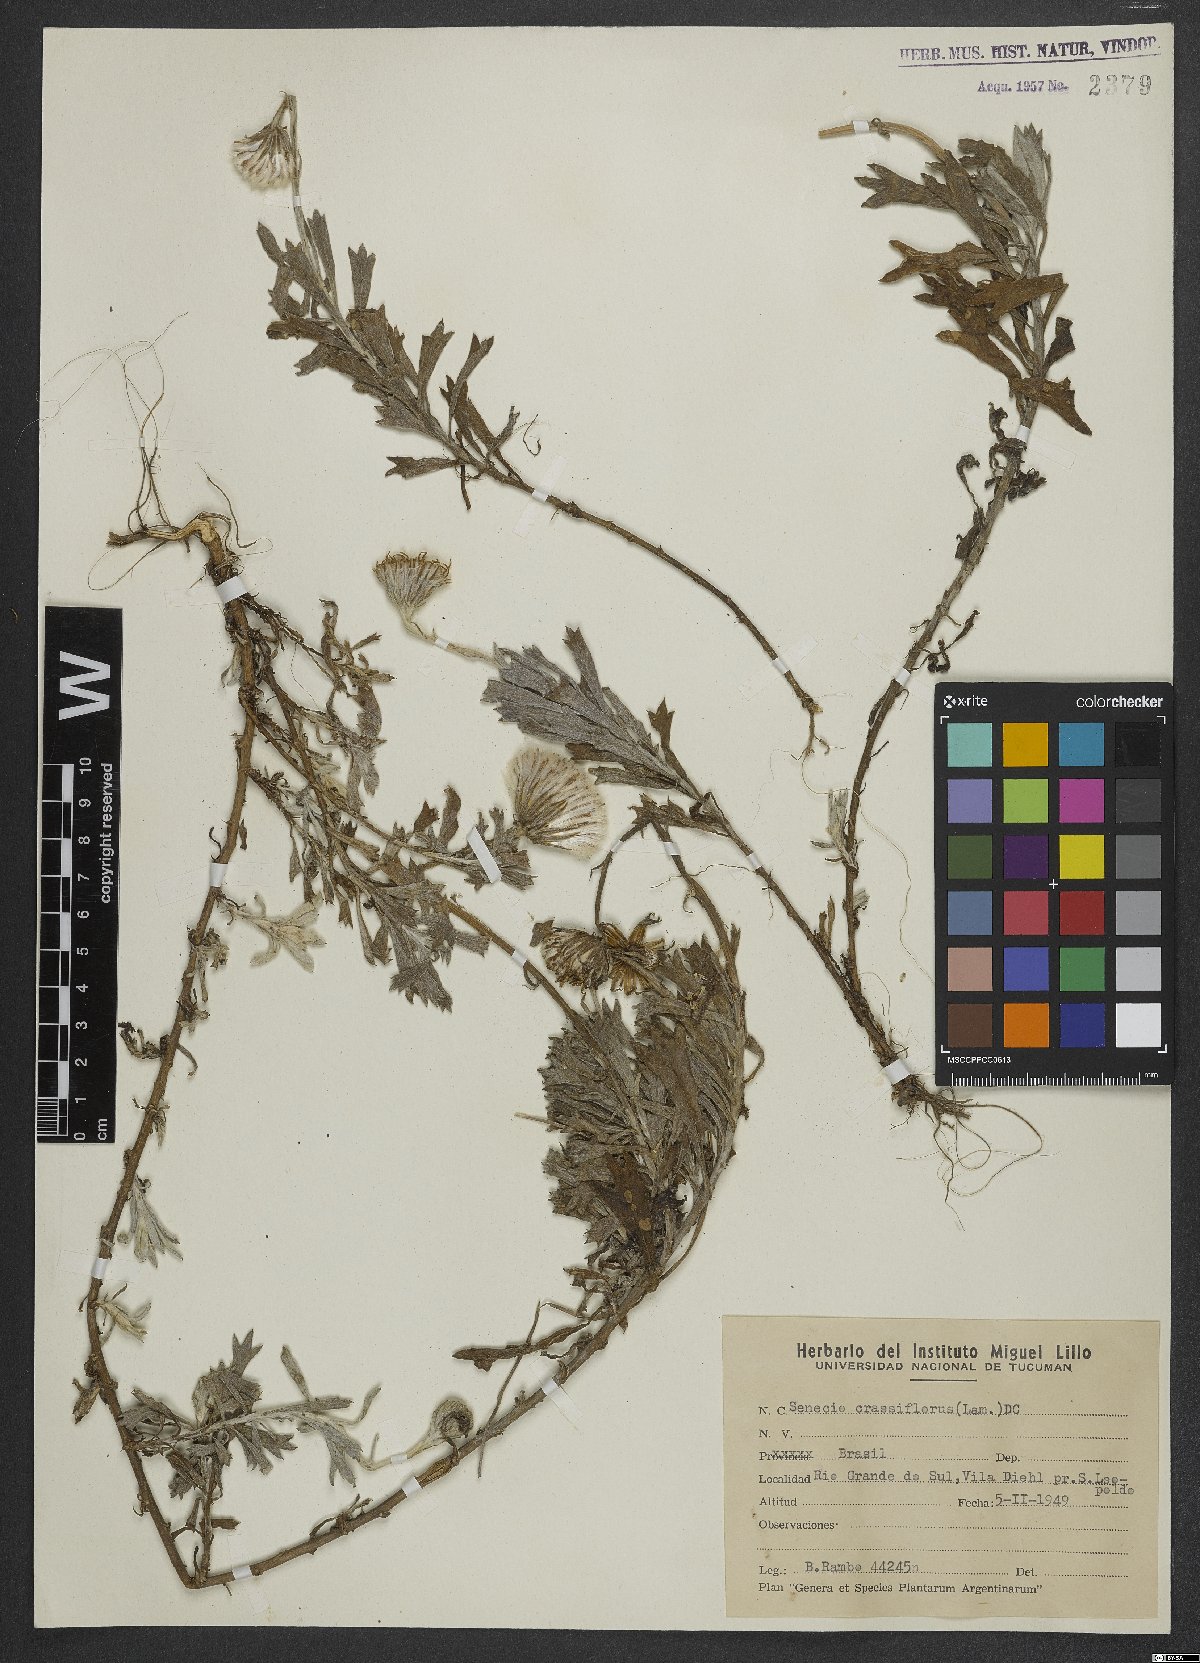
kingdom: Plantae
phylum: Tracheophyta
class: Magnoliopsida
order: Asterales
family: Asteraceae
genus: Senecio
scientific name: Senecio crassiflorus
